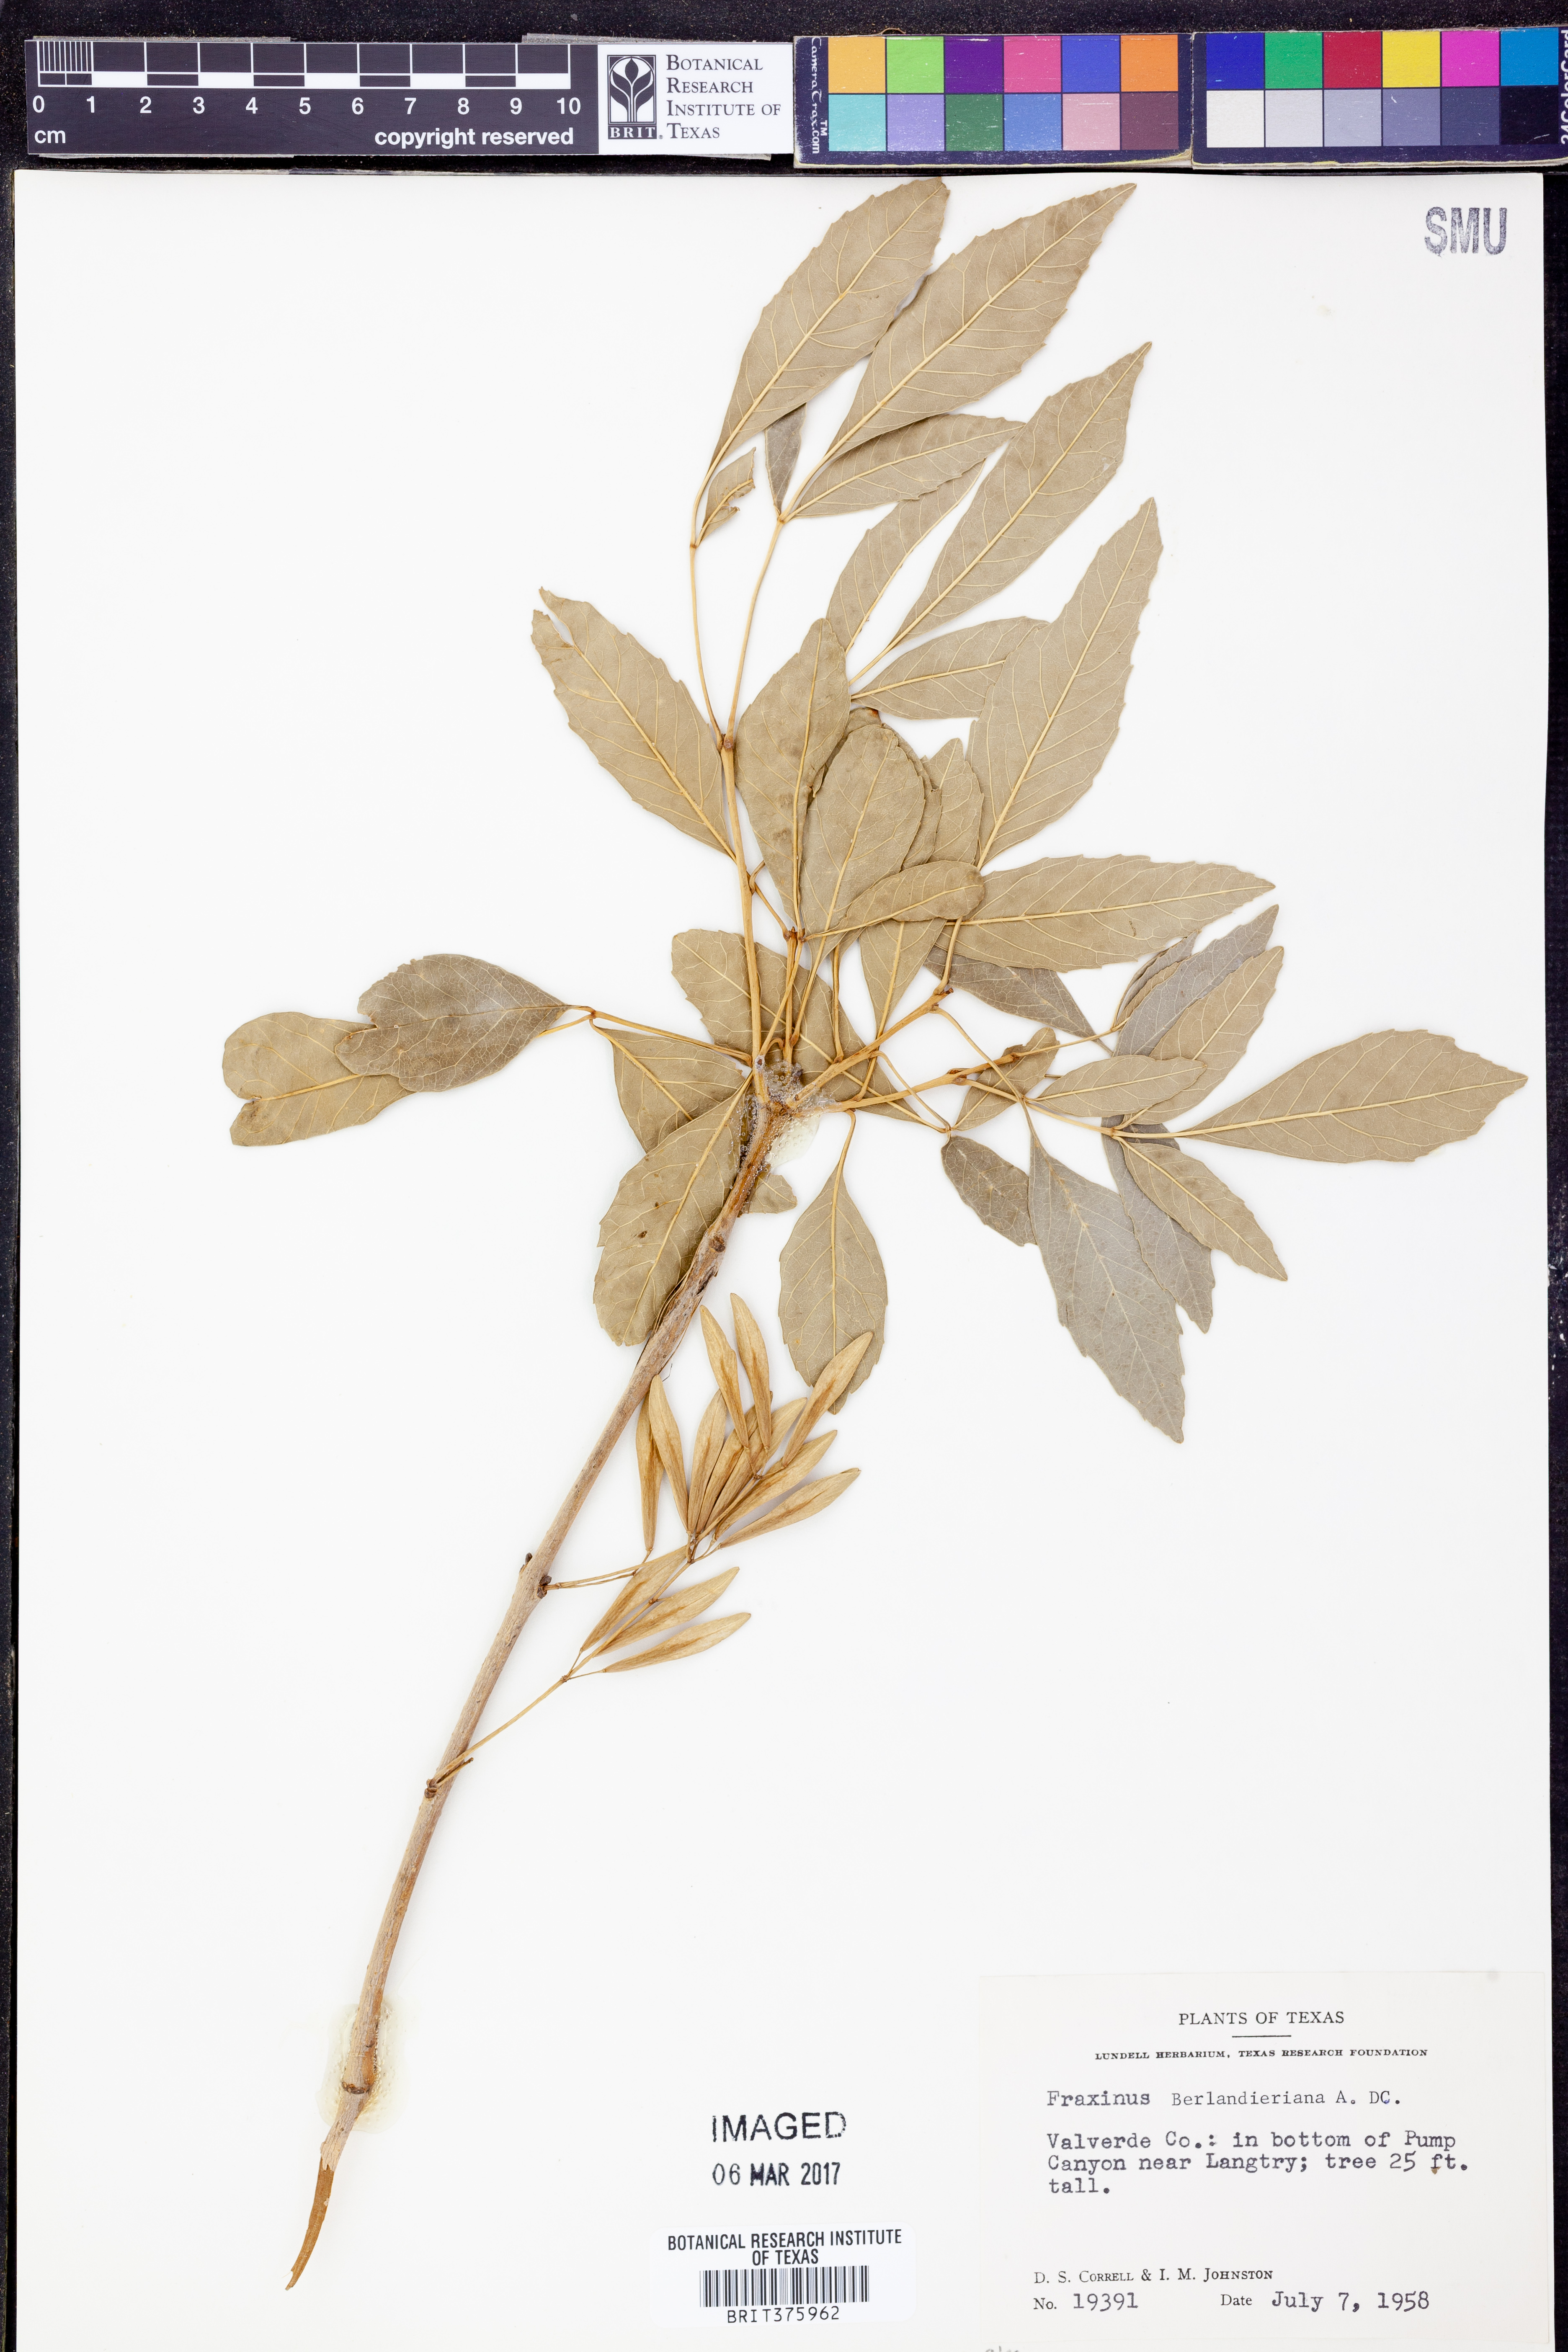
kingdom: Plantae
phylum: Tracheophyta
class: Magnoliopsida
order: Lamiales
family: Oleaceae
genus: Fraxinus
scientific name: Fraxinus berlandieriana
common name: Berlandier ash
